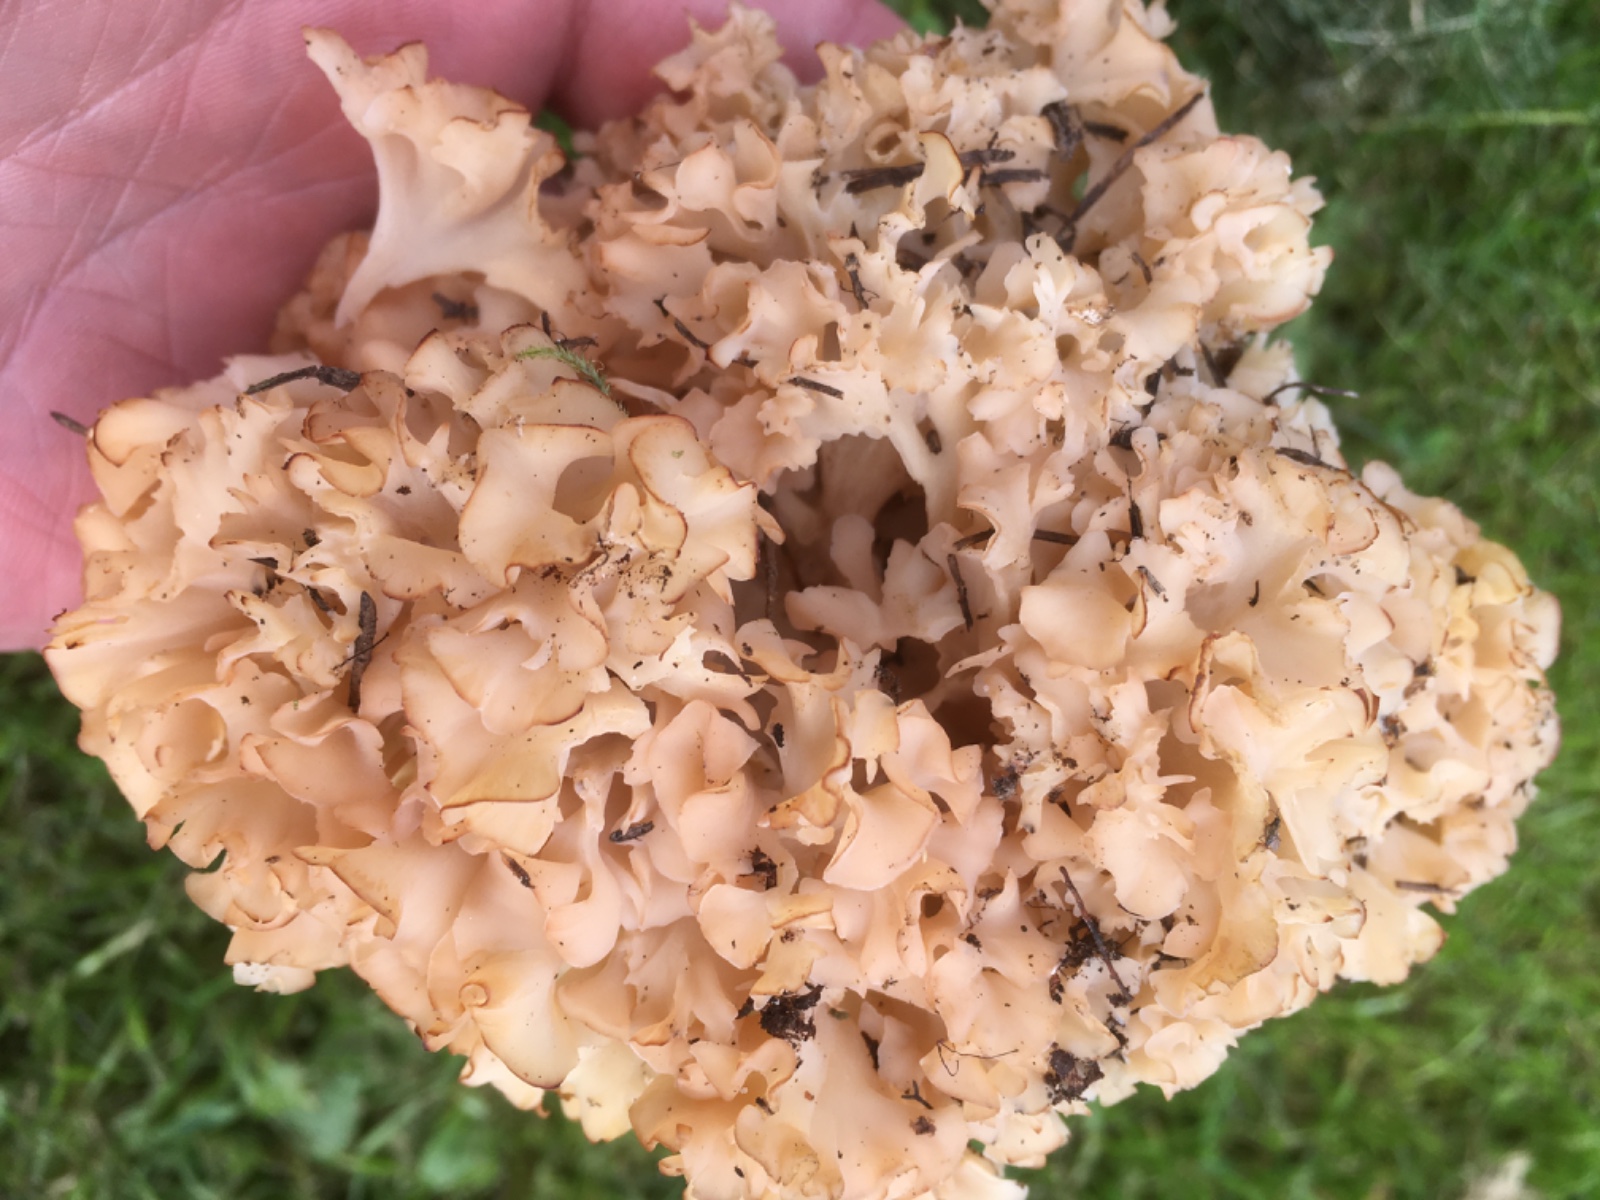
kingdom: Fungi
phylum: Basidiomycota
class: Agaricomycetes
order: Polyporales
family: Sparassidaceae
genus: Sparassis
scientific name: Sparassis crispa
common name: kruset blomkålssvamp
